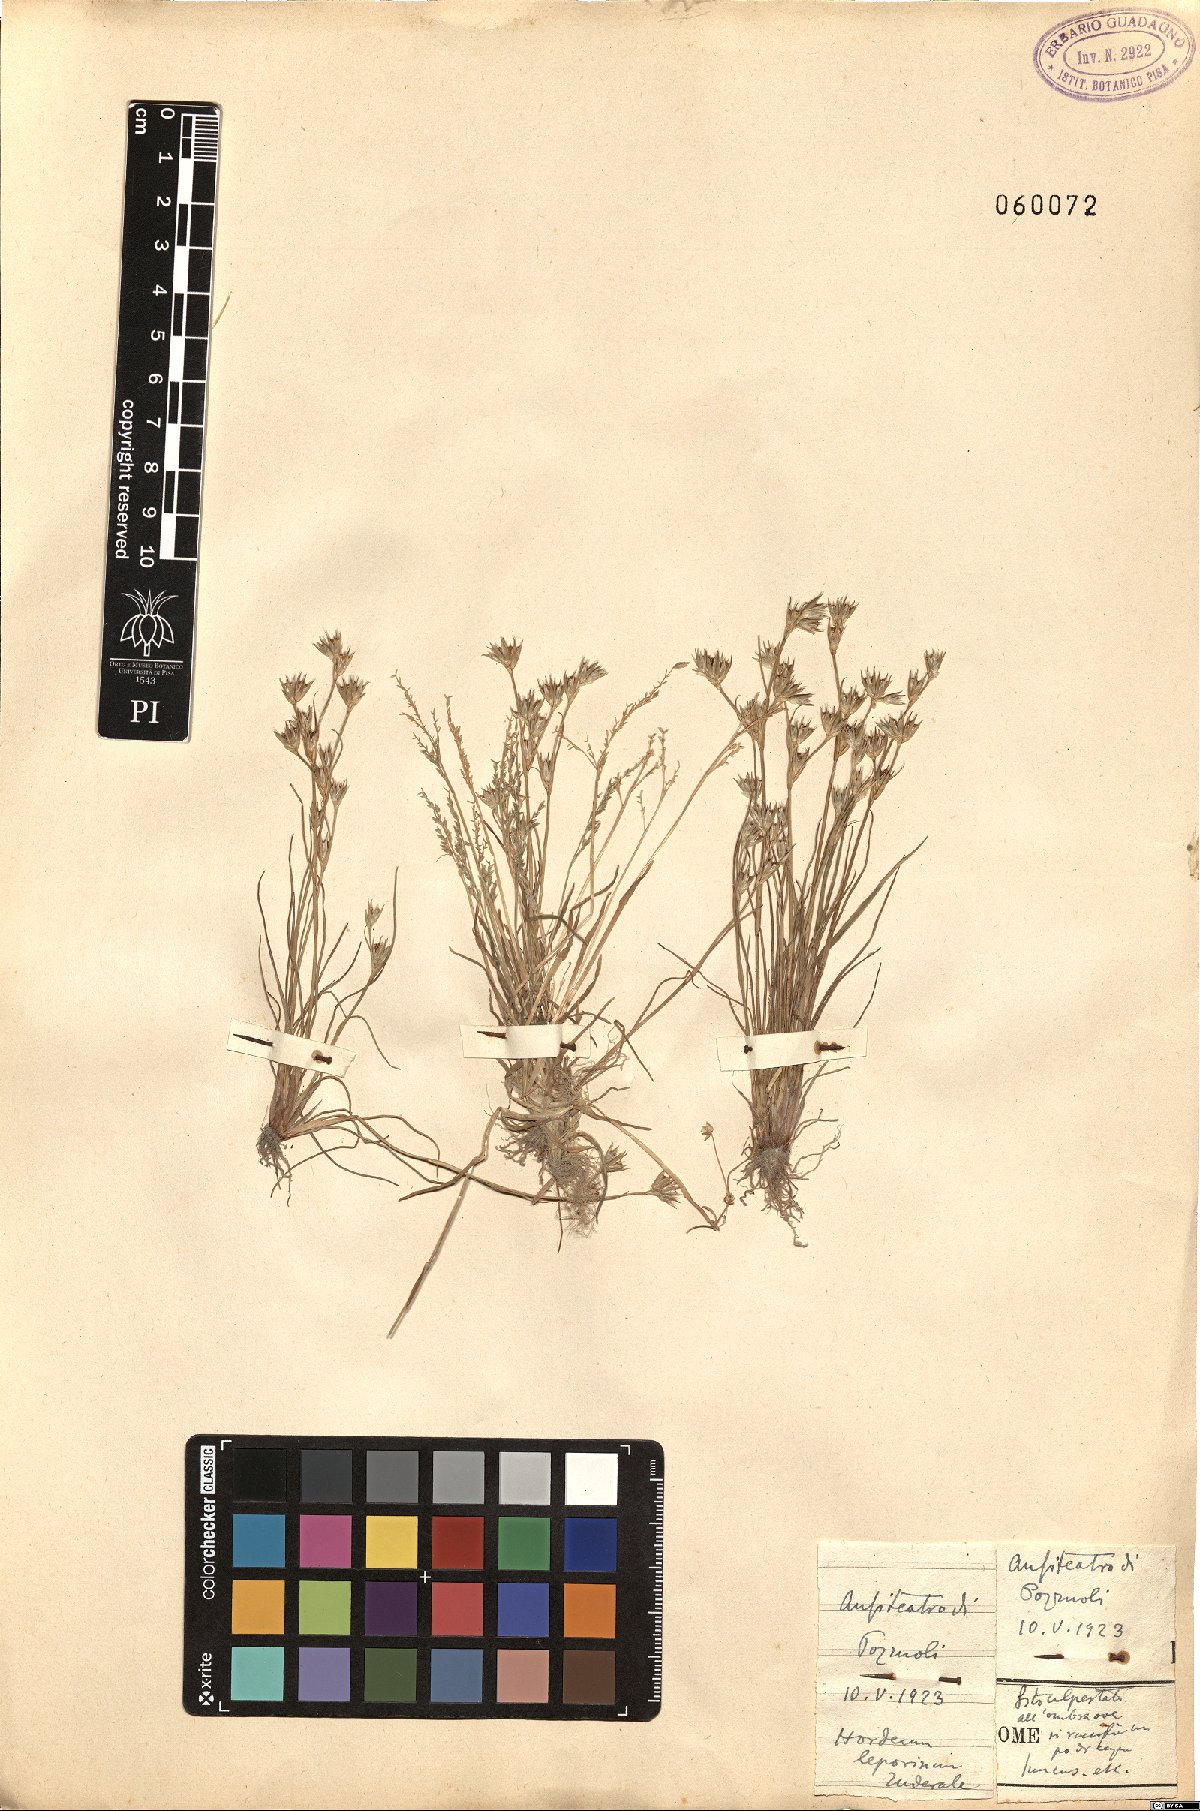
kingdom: Plantae
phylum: Tracheophyta
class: Liliopsida
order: Poales
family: Juncaceae
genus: Juncus
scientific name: Juncus
